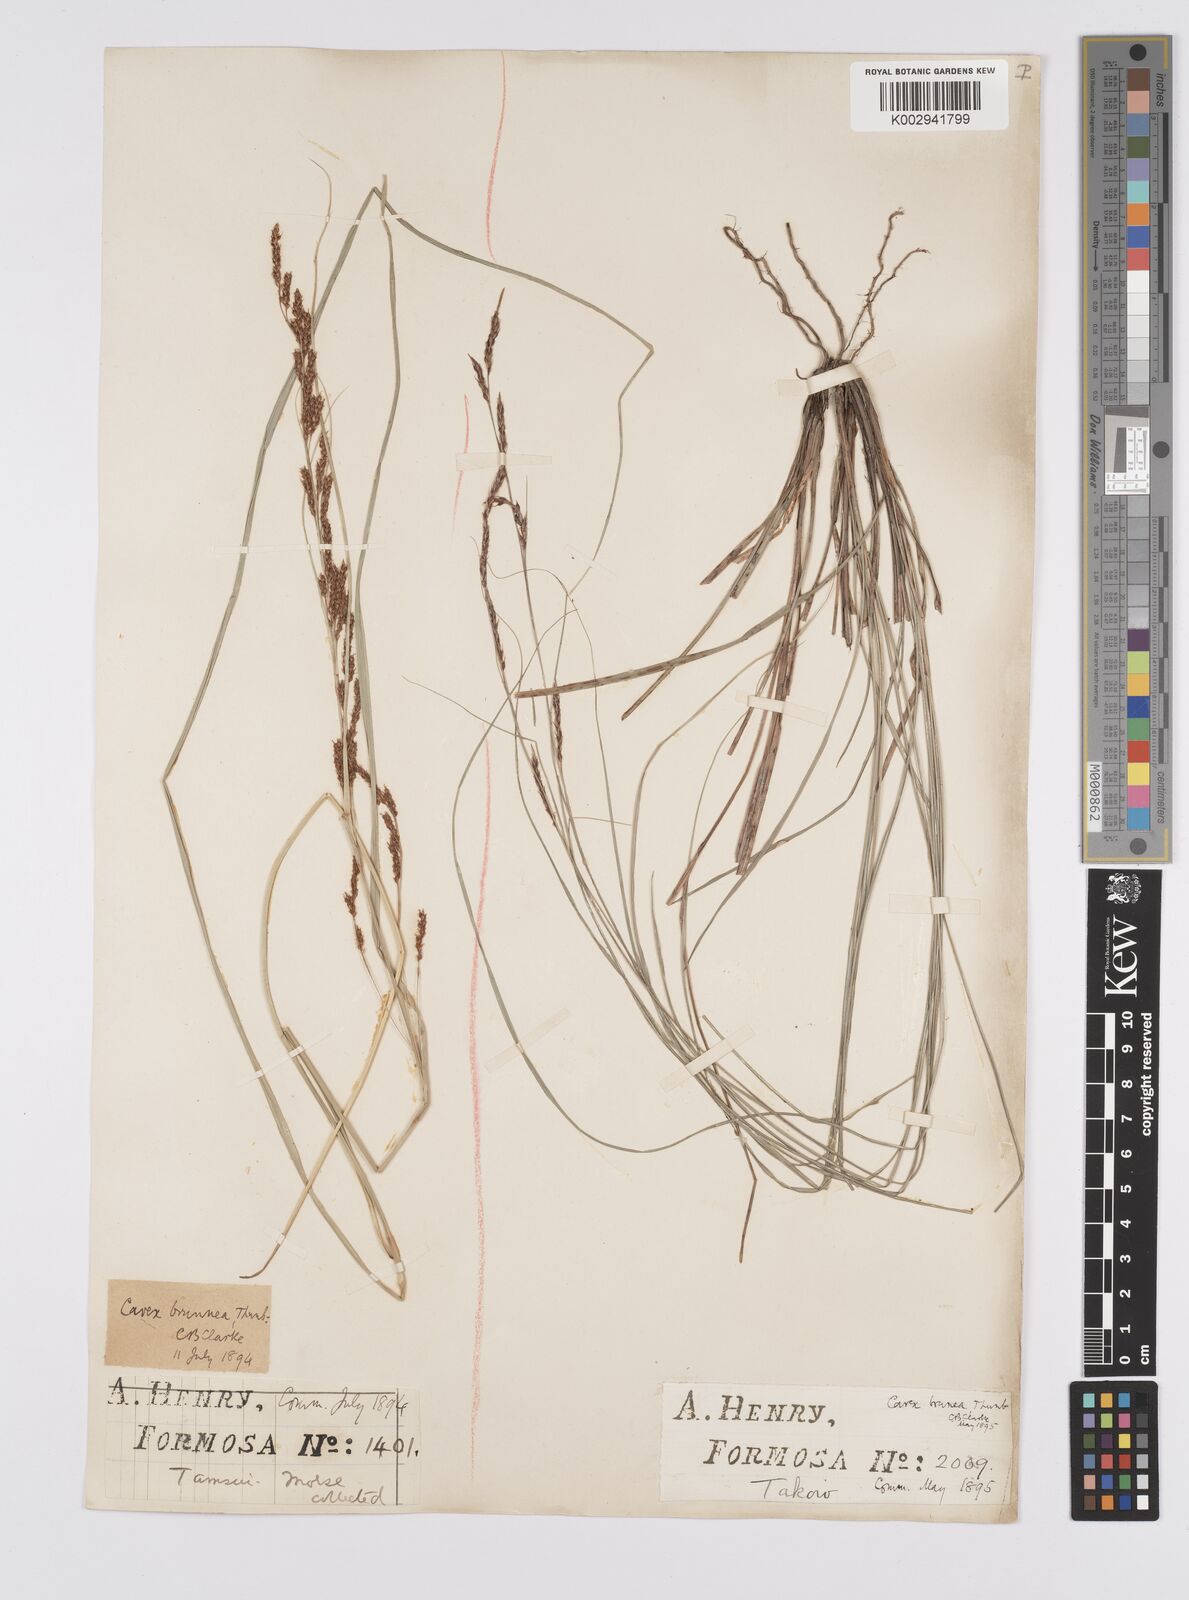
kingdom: Plantae
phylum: Tracheophyta
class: Liliopsida
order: Poales
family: Cyperaceae
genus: Carex
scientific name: Carex brunnea
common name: Greater brown sedge
